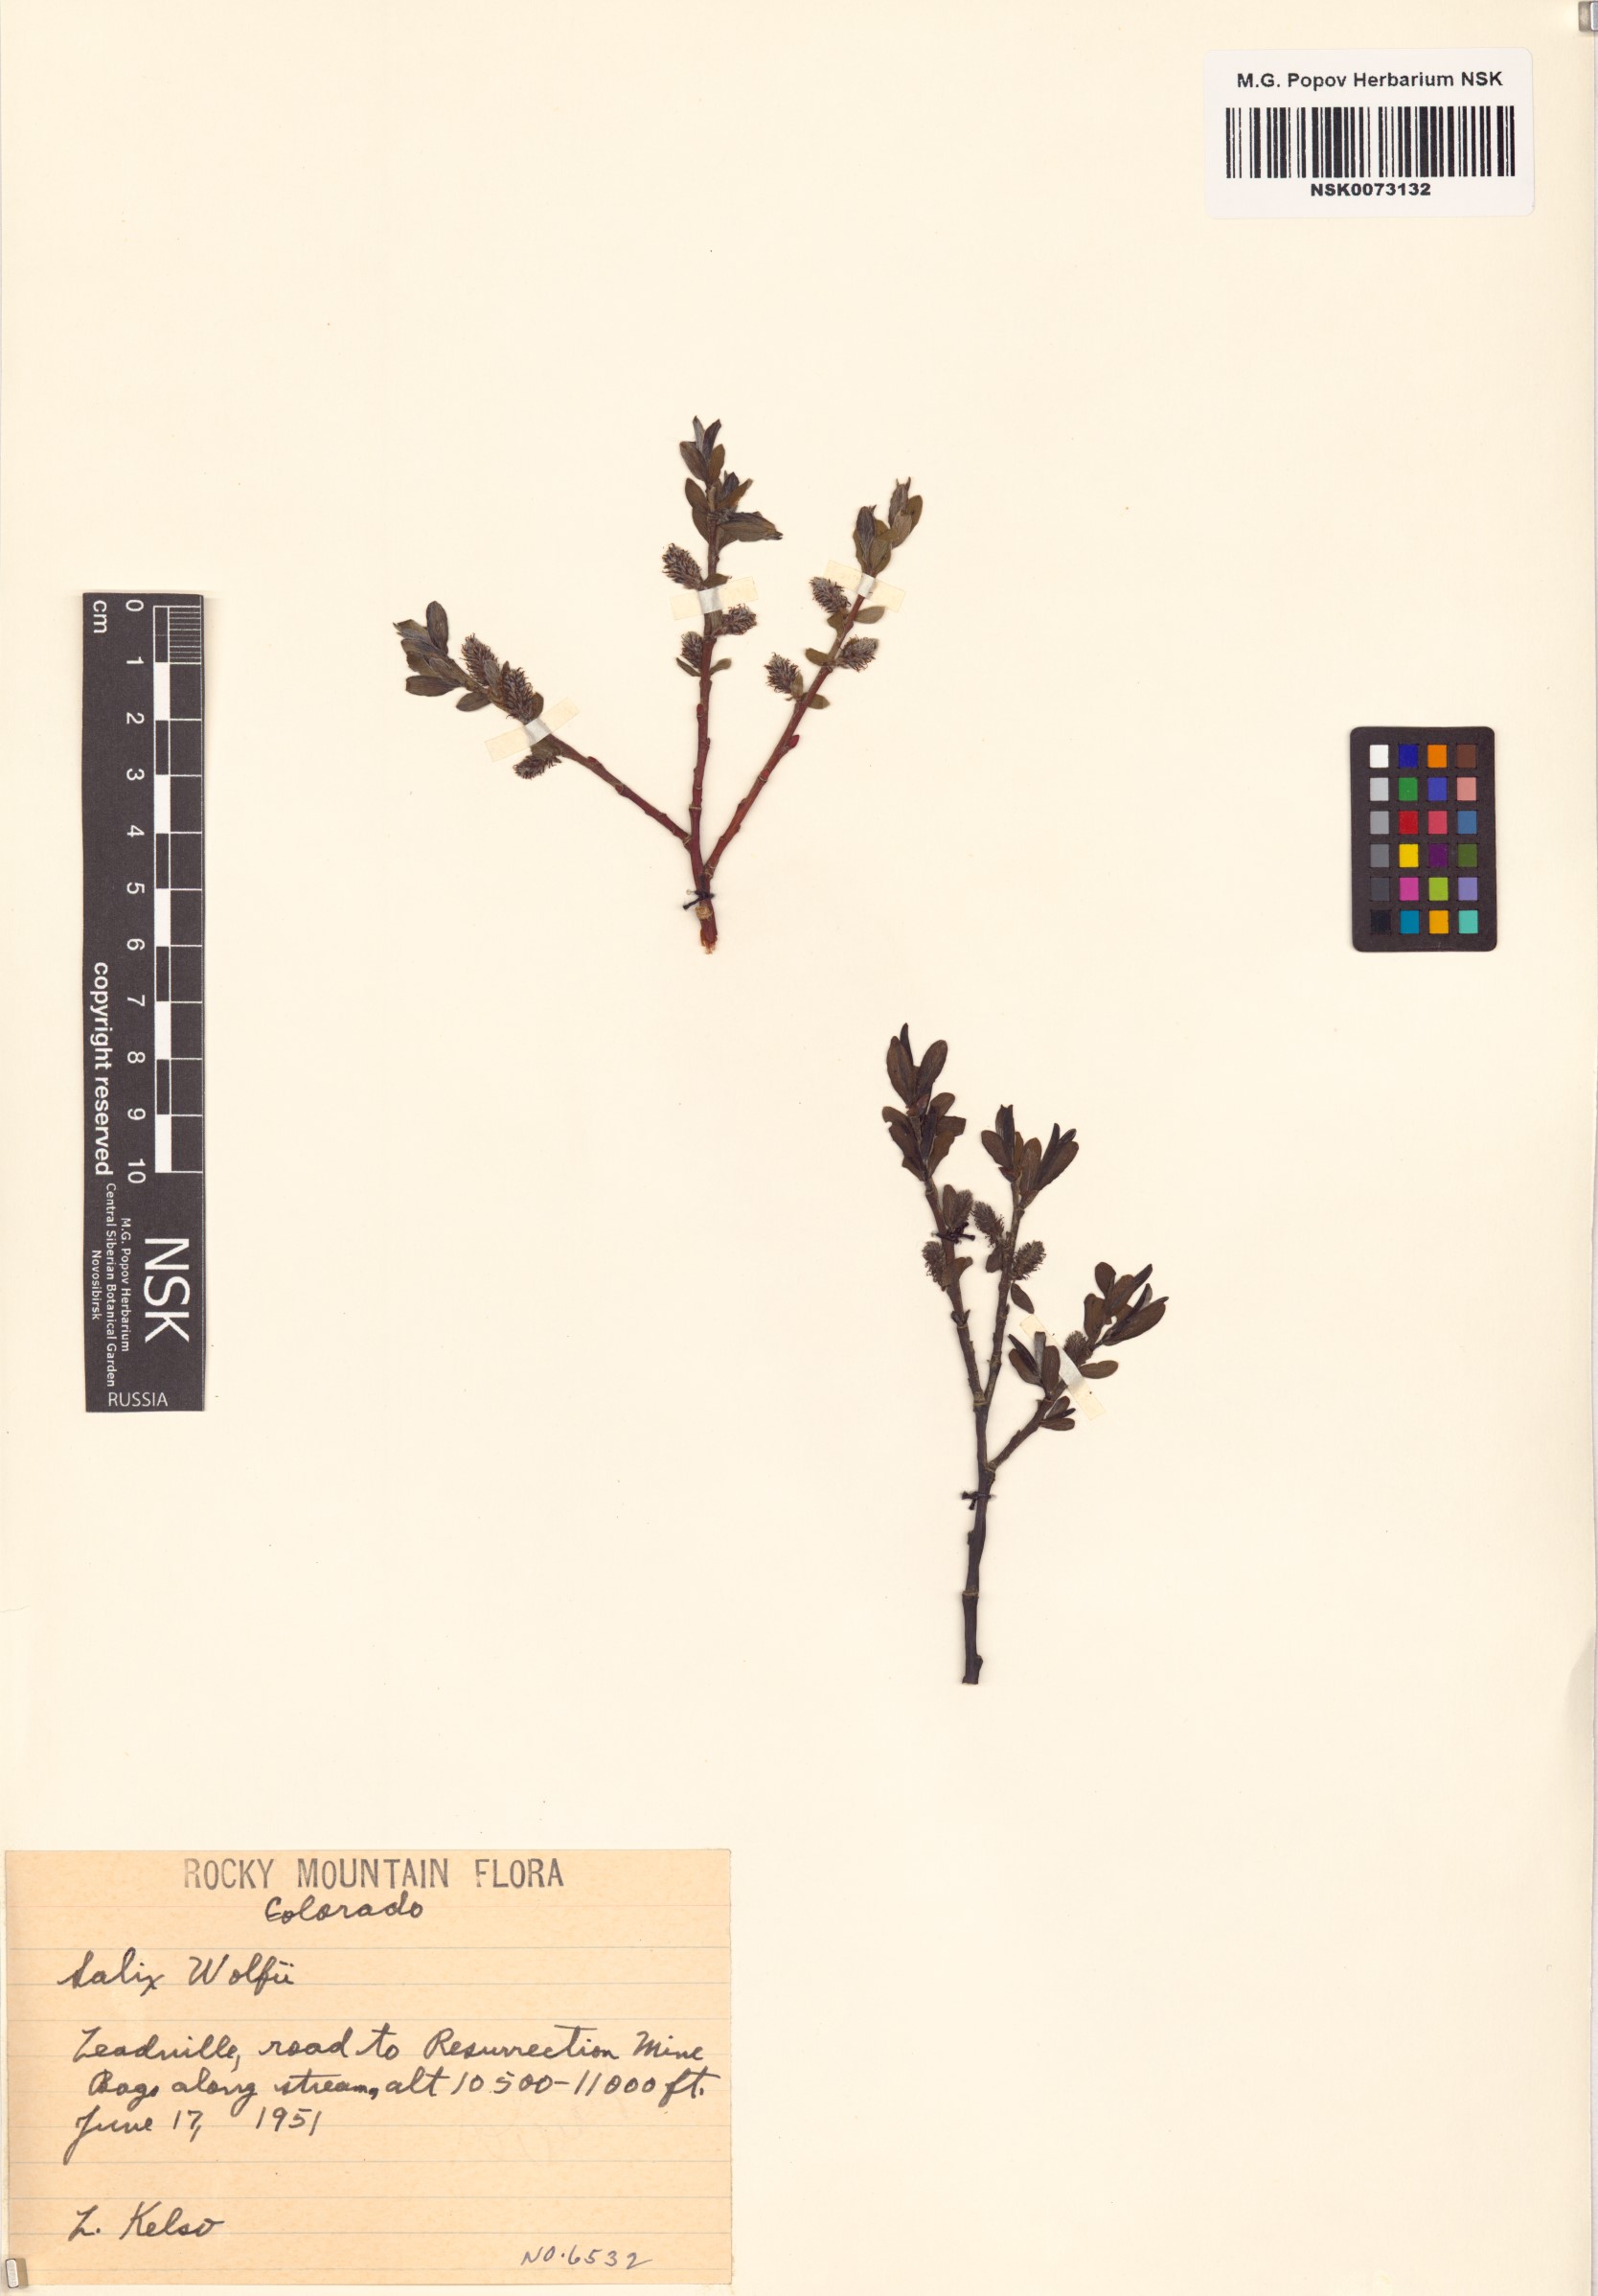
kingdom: Plantae
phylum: Tracheophyta
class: Magnoliopsida
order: Malpighiales
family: Salicaceae
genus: Salix
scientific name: Salix wolfii
